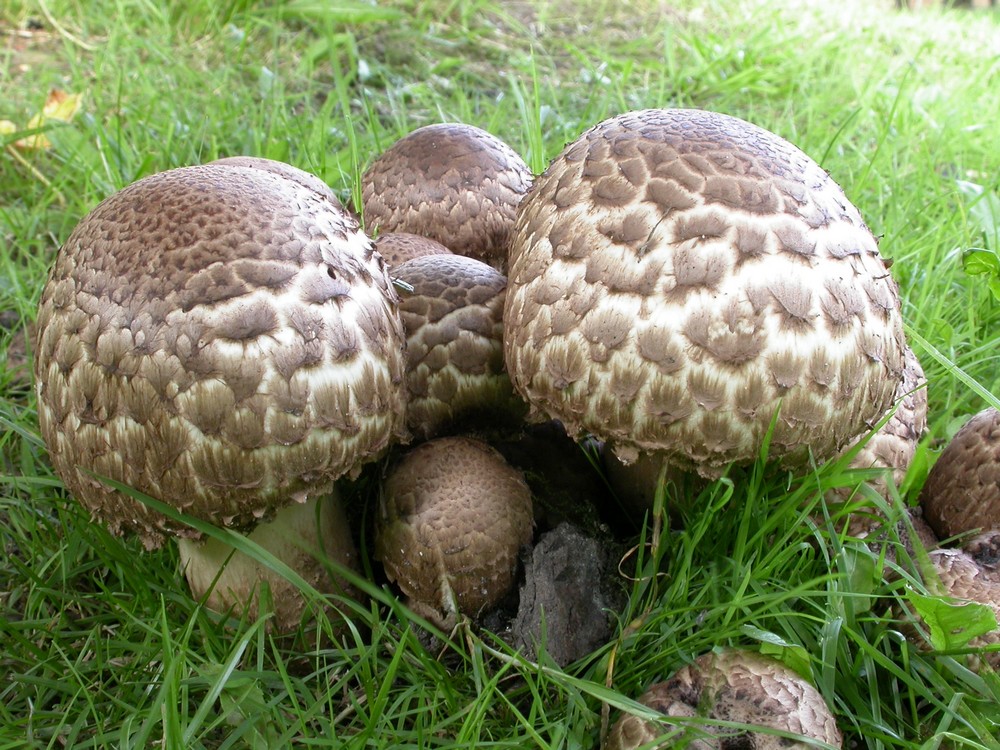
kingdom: Fungi
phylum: Basidiomycota
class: Agaricomycetes
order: Agaricales
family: Agaricaceae
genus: Agaricus
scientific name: Agaricus bohusii
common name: krumskællet champignon
